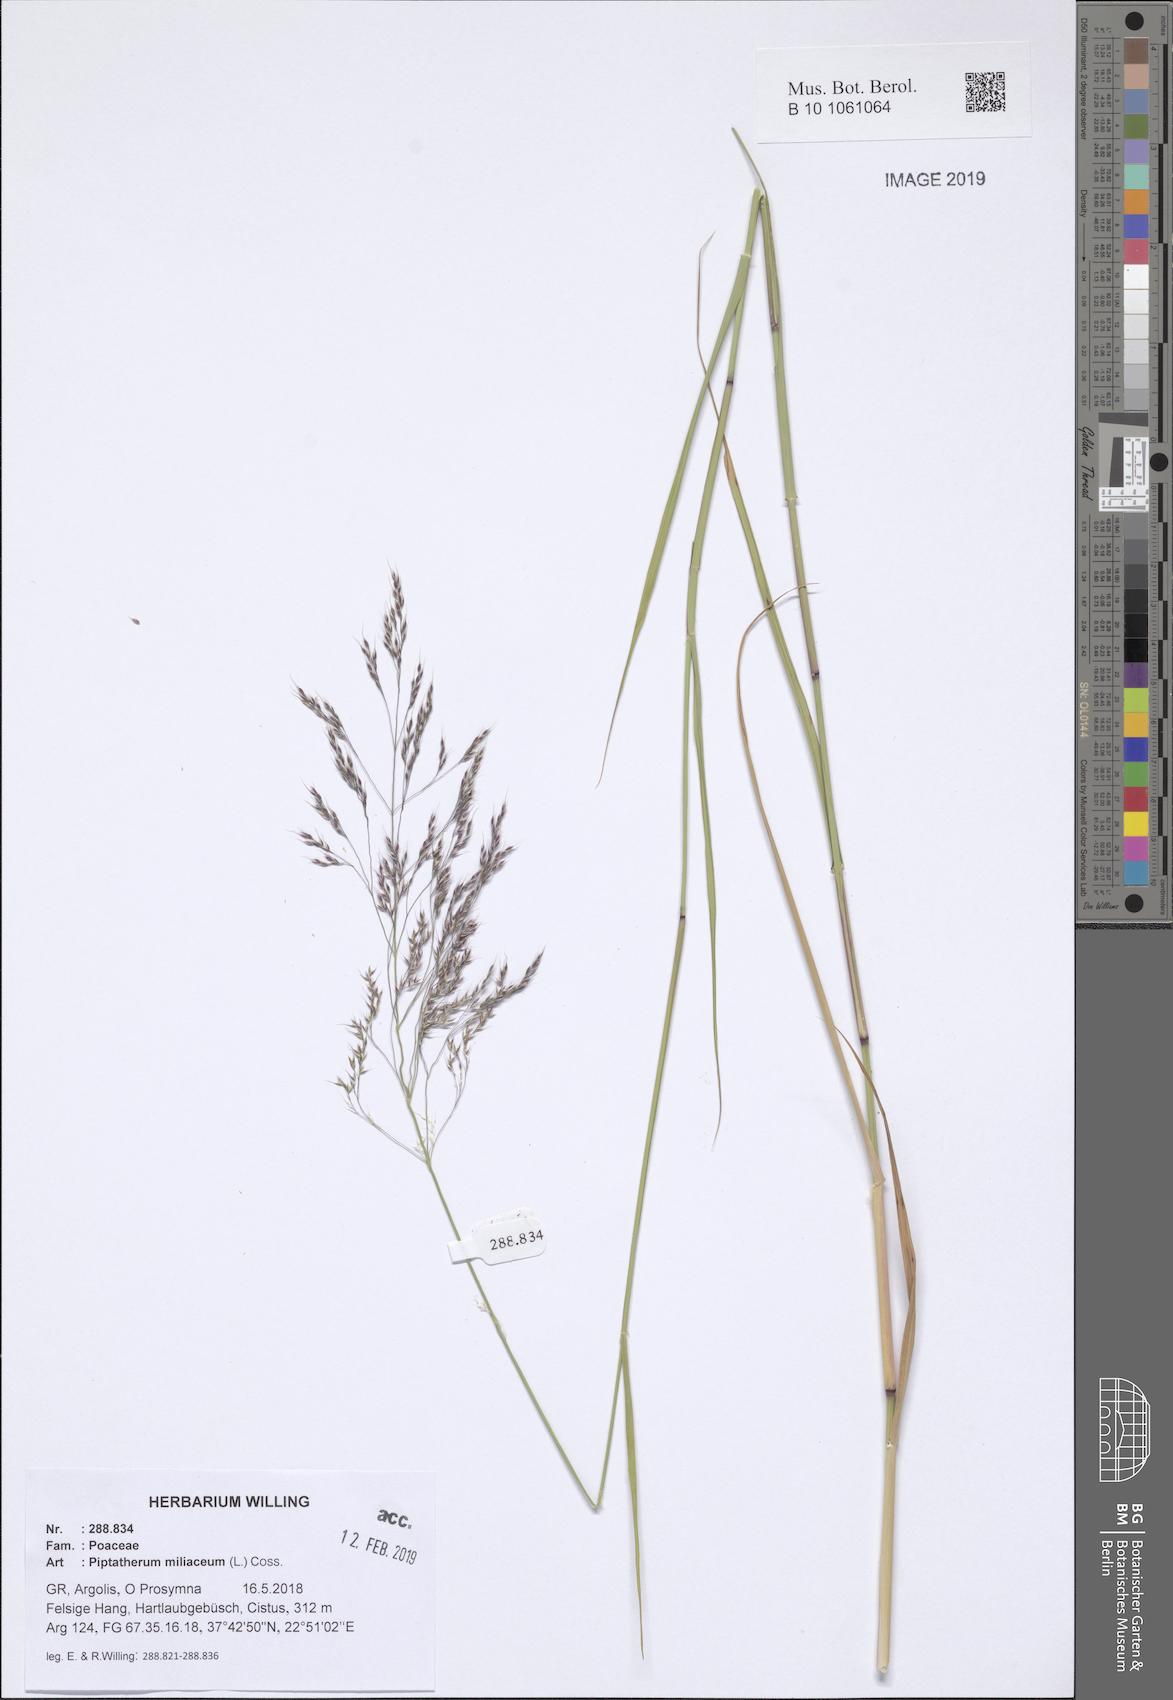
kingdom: Plantae
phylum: Tracheophyta
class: Liliopsida
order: Poales
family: Poaceae
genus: Oloptum
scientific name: Oloptum miliaceum
